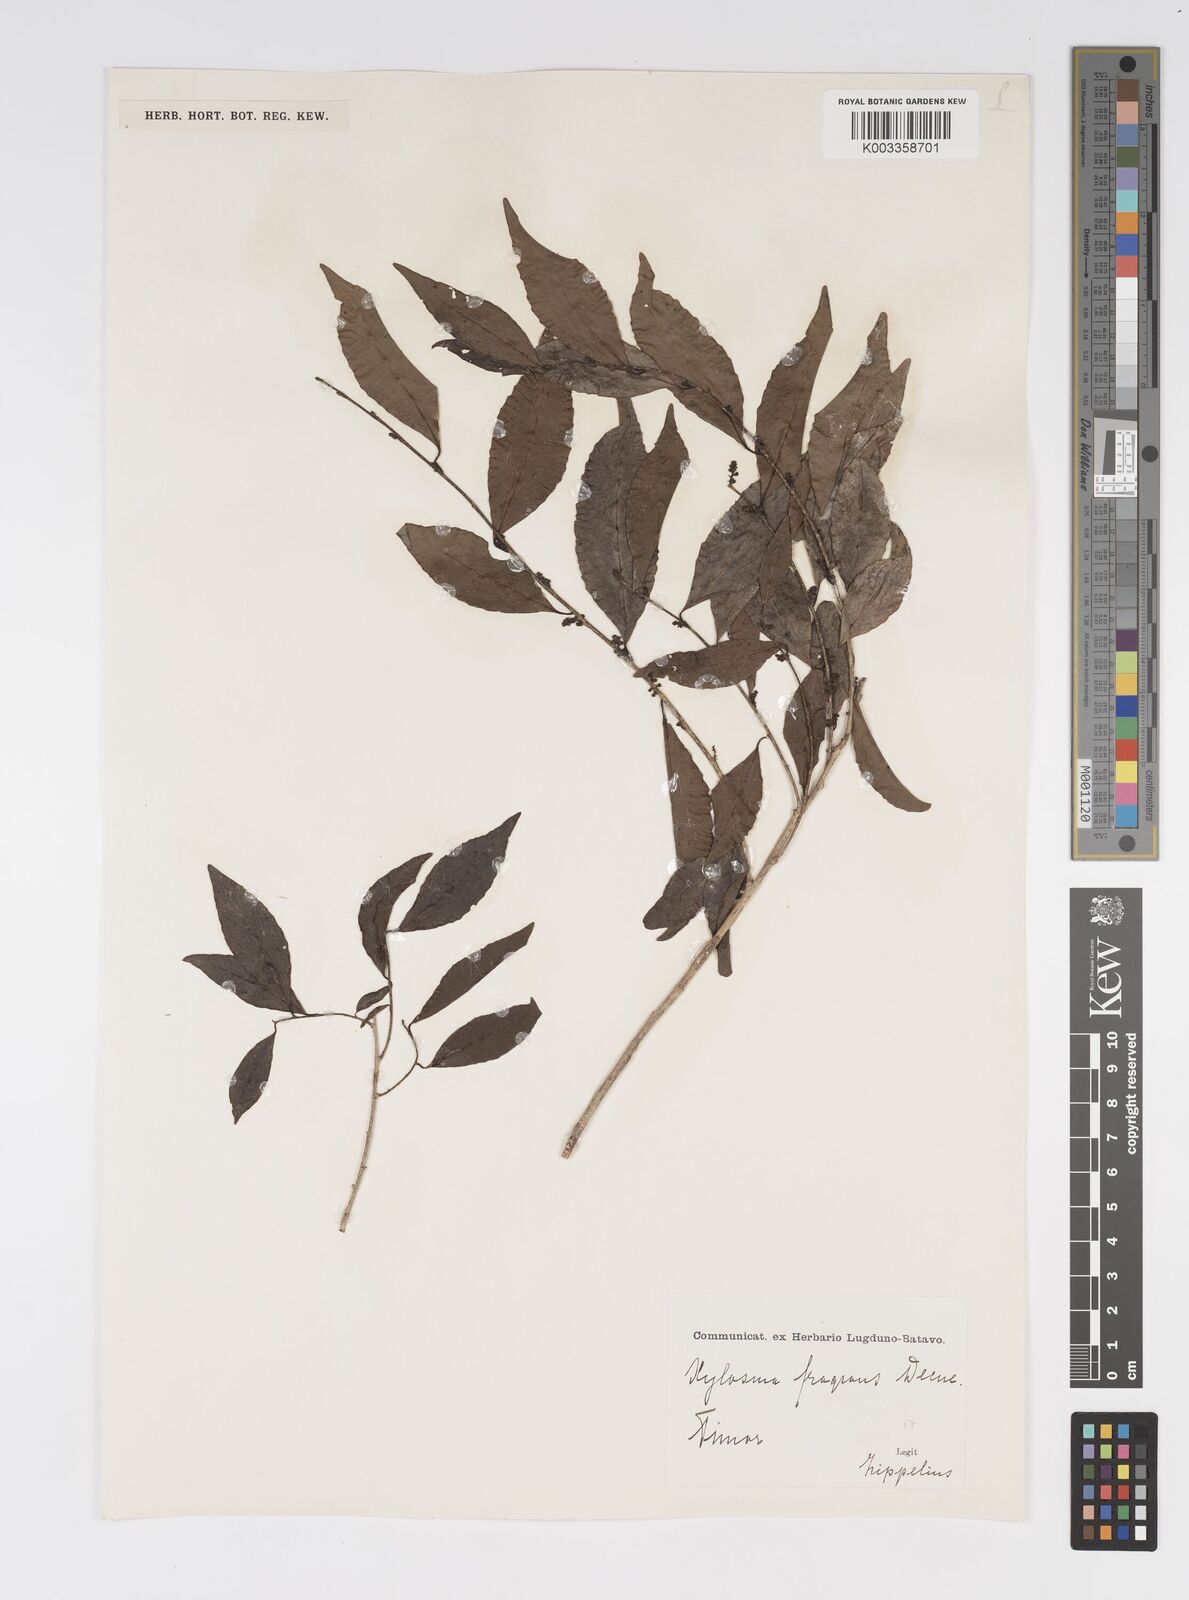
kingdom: Plantae
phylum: Tracheophyta
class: Magnoliopsida
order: Malpighiales
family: Salicaceae
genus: Xylosma
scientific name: Xylosma luzonensis
